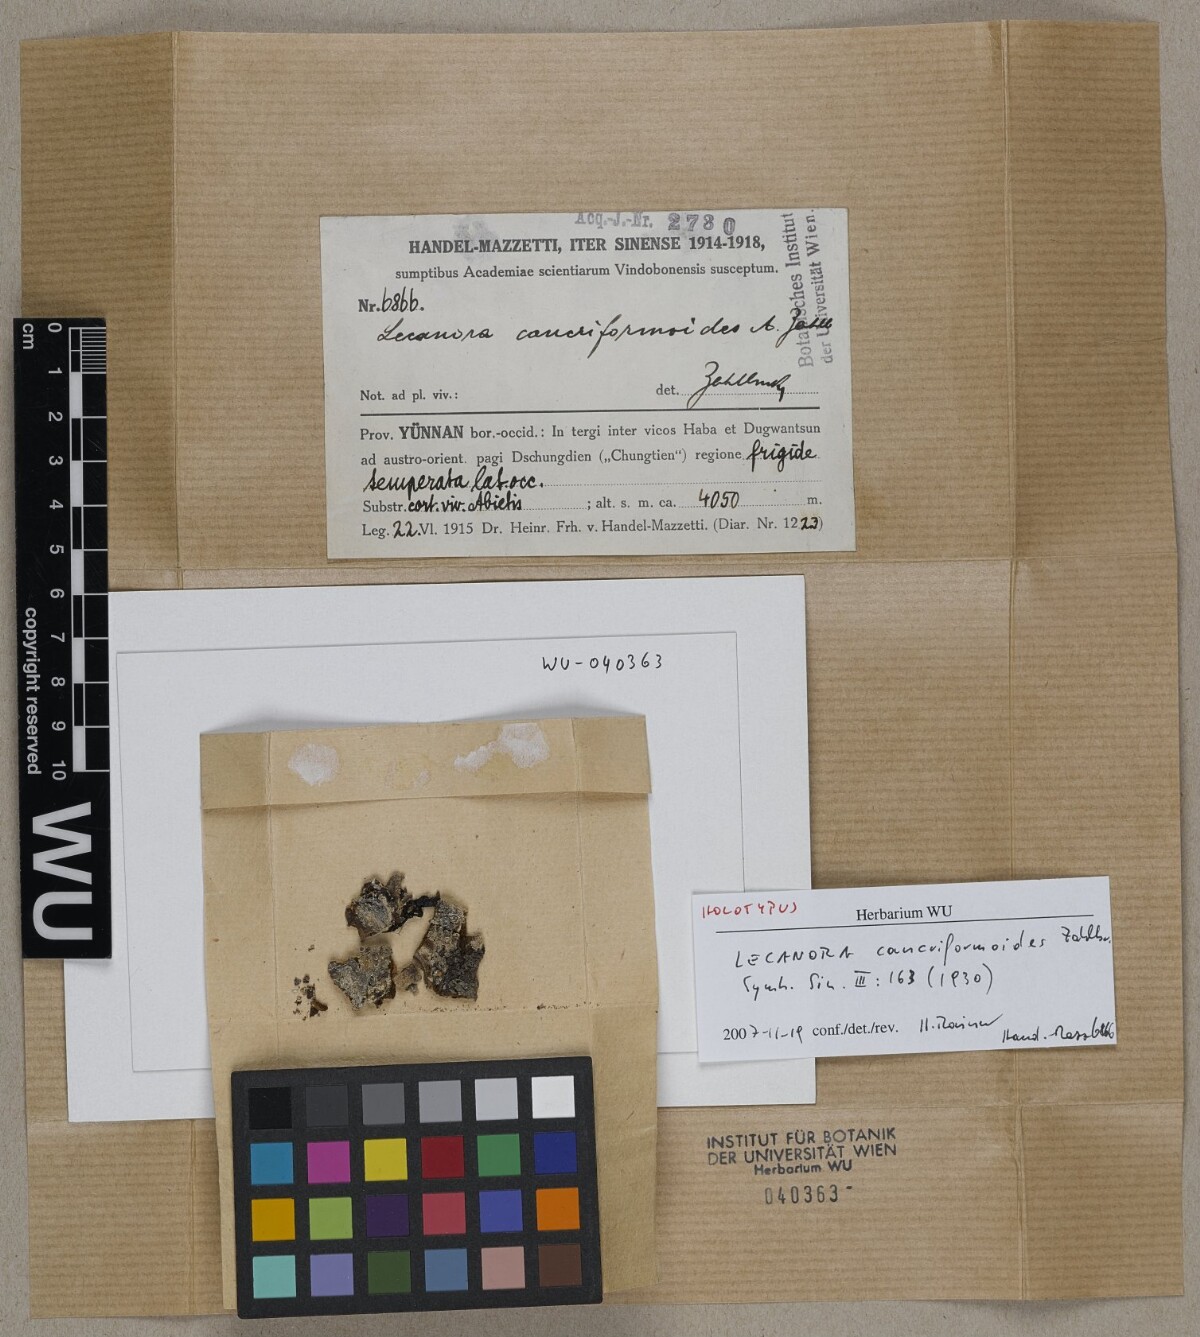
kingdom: Fungi
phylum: Ascomycota
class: Lecanoromycetes
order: Lecanorales
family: Lecanoraceae
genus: Lecanora
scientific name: Lecanora
